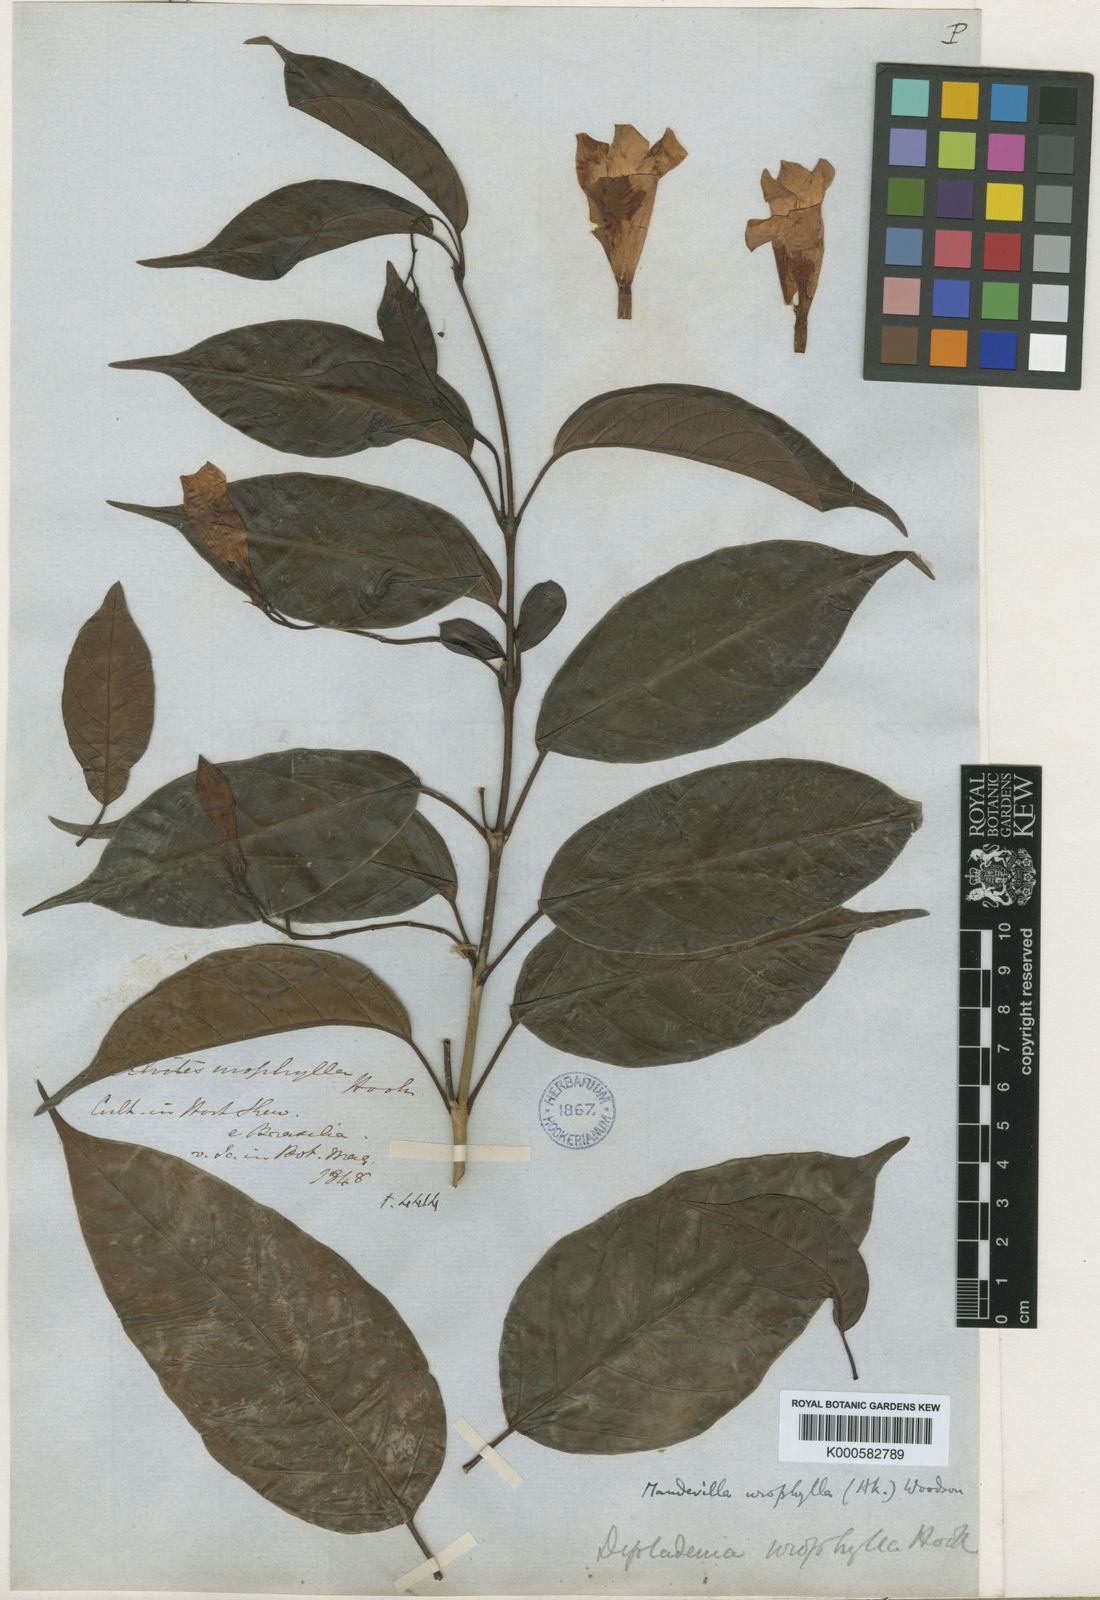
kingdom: Plantae
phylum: Tracheophyta
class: Magnoliopsida
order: Gentianales
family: Apocynaceae
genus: Mandevilla
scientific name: Mandevilla urophylla
